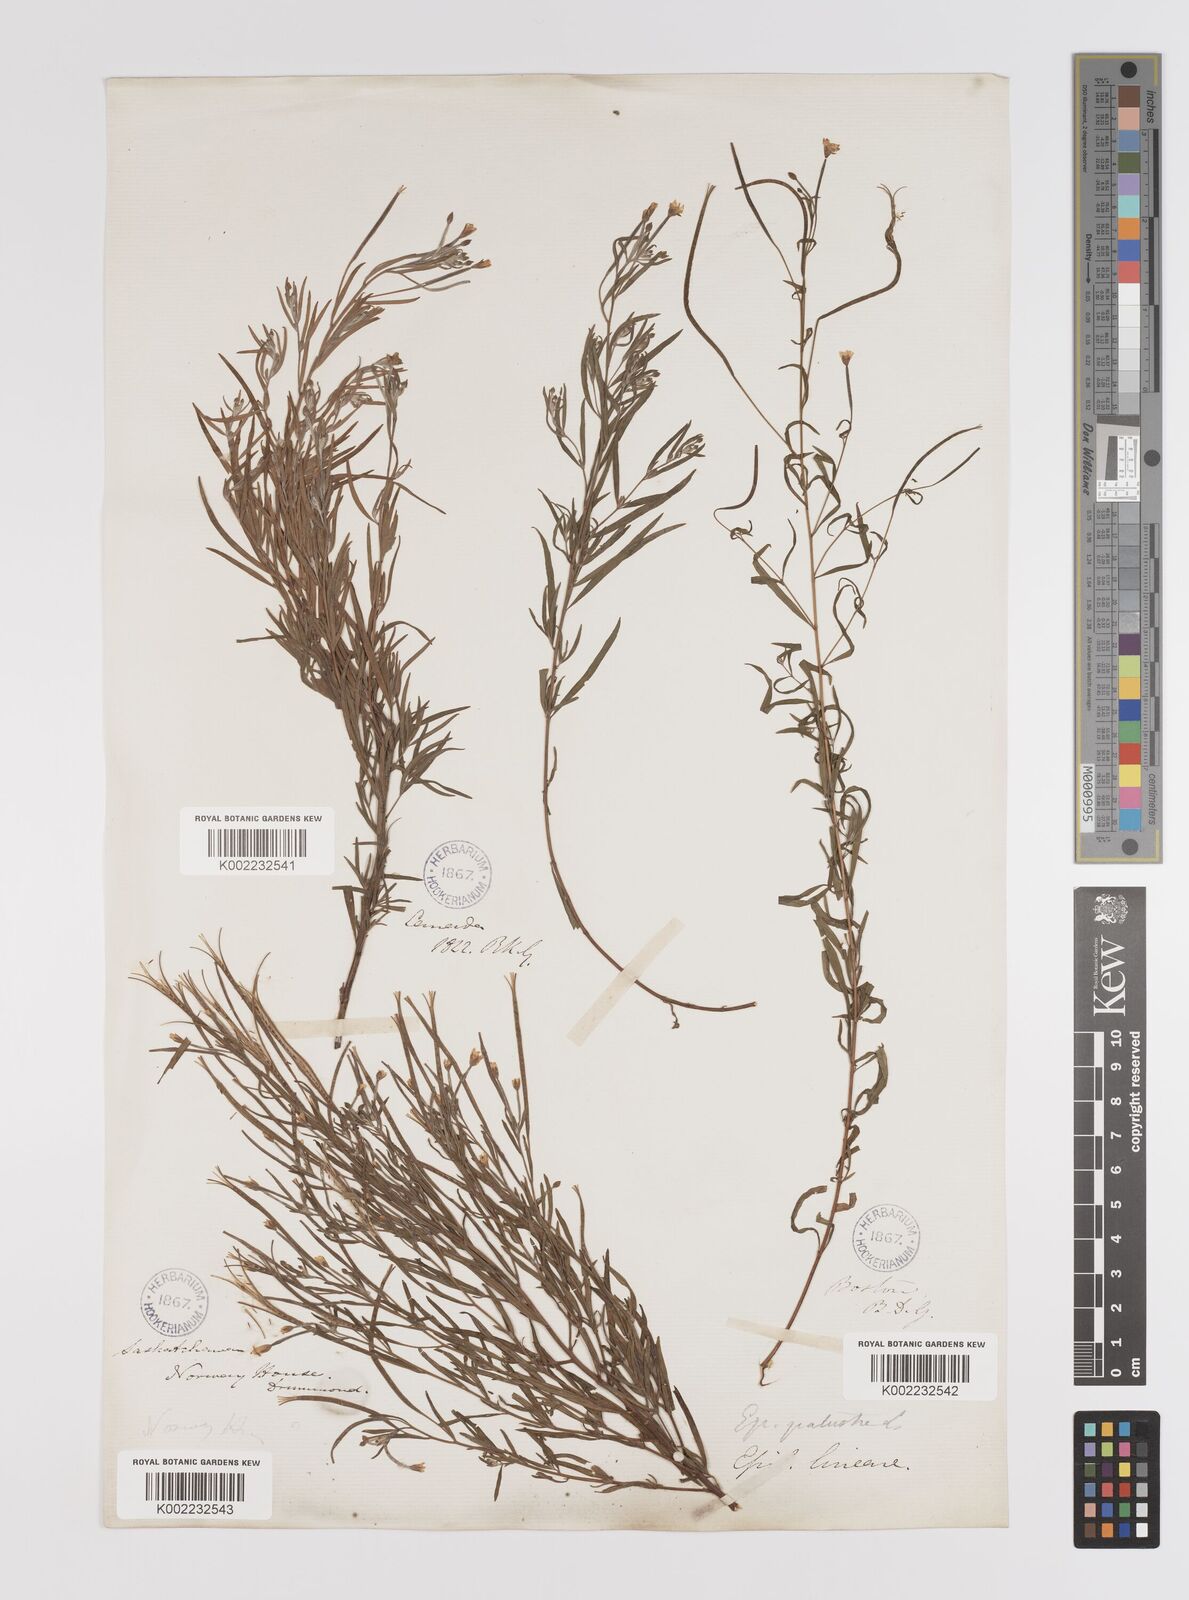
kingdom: Plantae
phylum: Tracheophyta
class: Magnoliopsida
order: Myrtales
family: Onagraceae
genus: Epilobium
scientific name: Epilobium palustre
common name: Marsh willowherb
